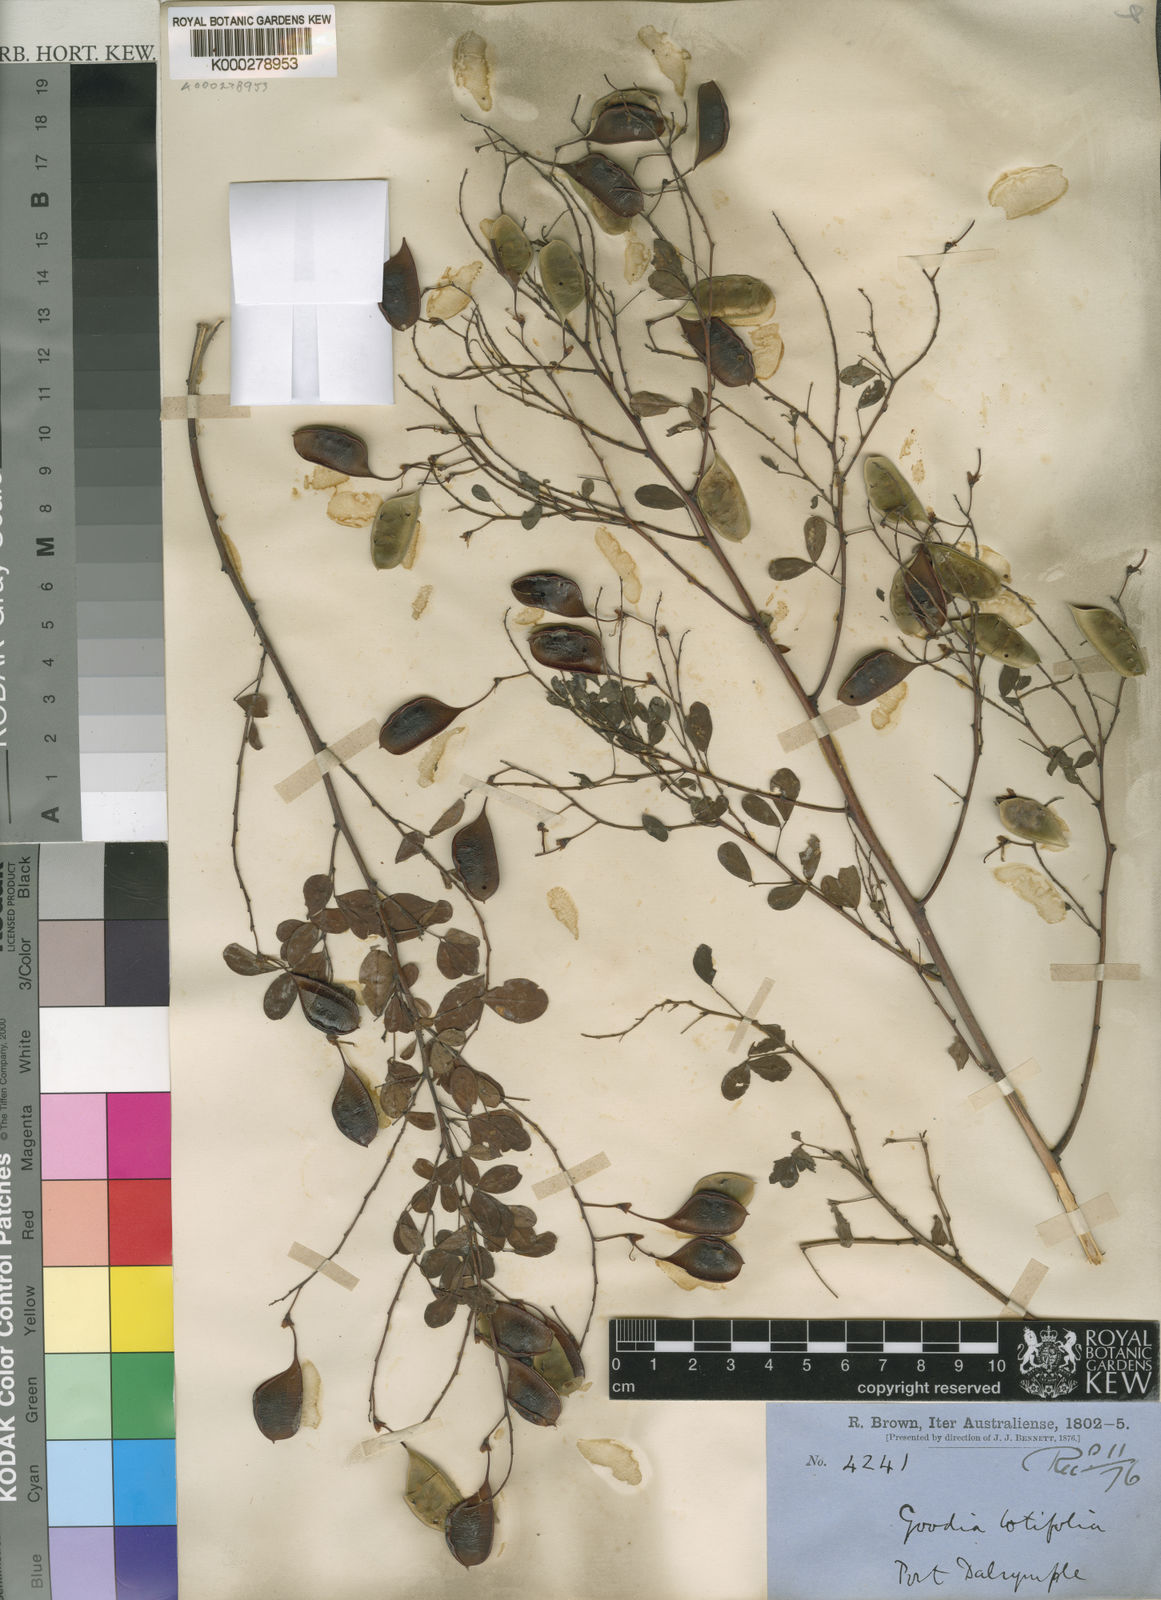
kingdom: Plantae
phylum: Tracheophyta
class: Magnoliopsida
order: Fabales
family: Fabaceae
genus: Goodia
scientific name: Goodia lotifolia
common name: Cloverleaf-poison
